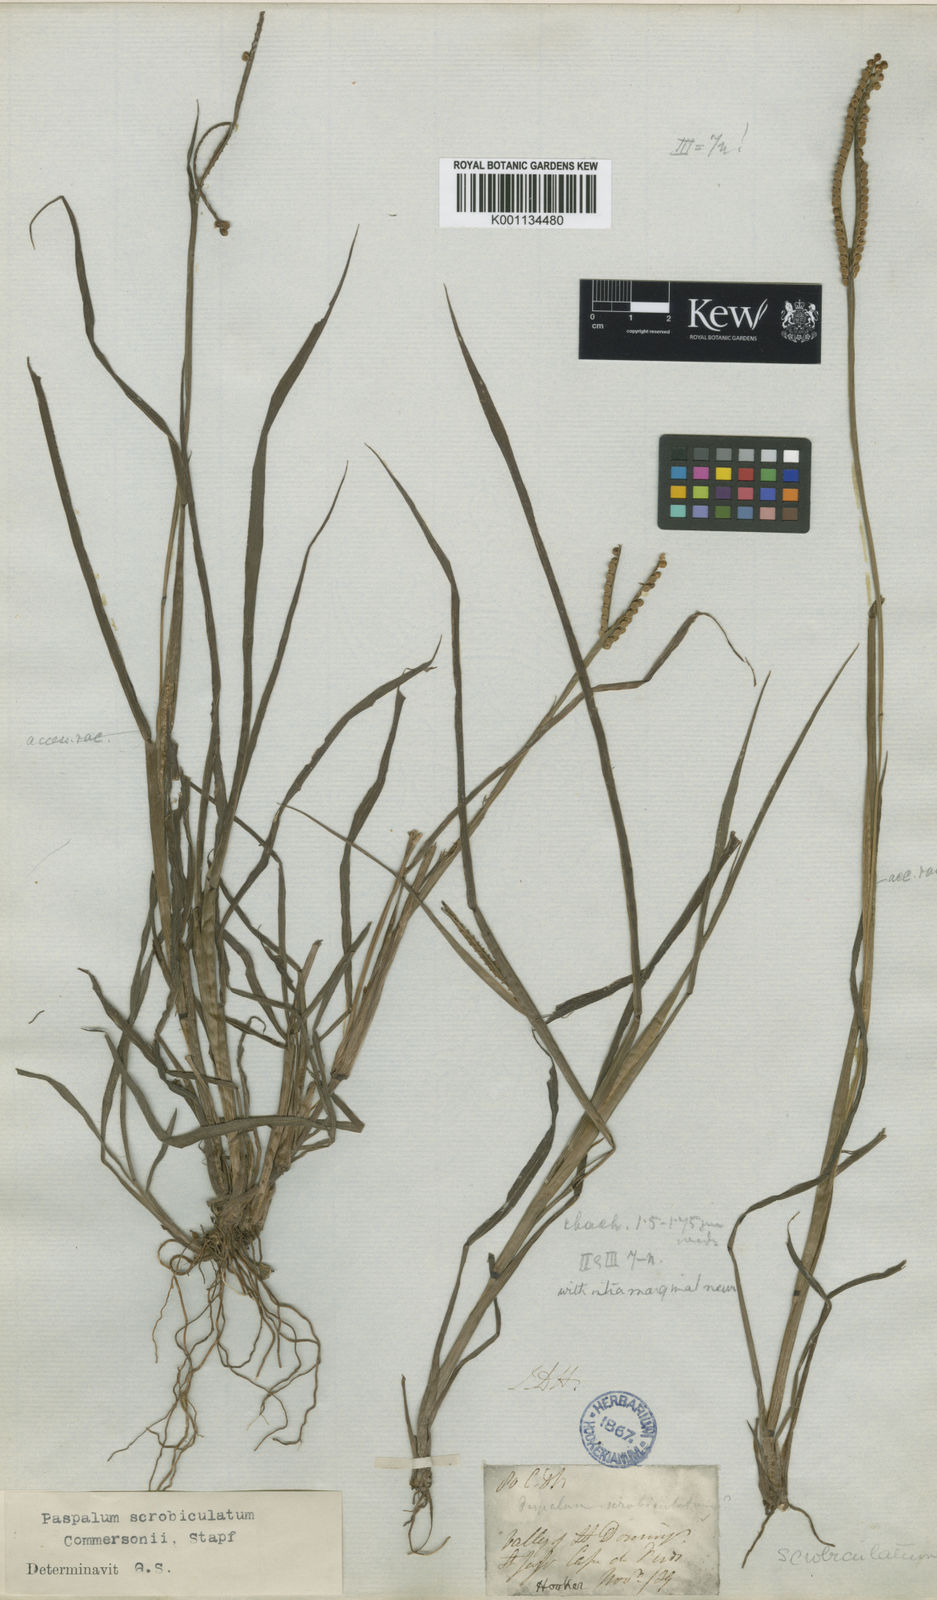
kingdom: Plantae
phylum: Tracheophyta
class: Liliopsida
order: Poales
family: Poaceae
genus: Paspalum
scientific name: Paspalum scrobiculatum
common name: Kodo millet
